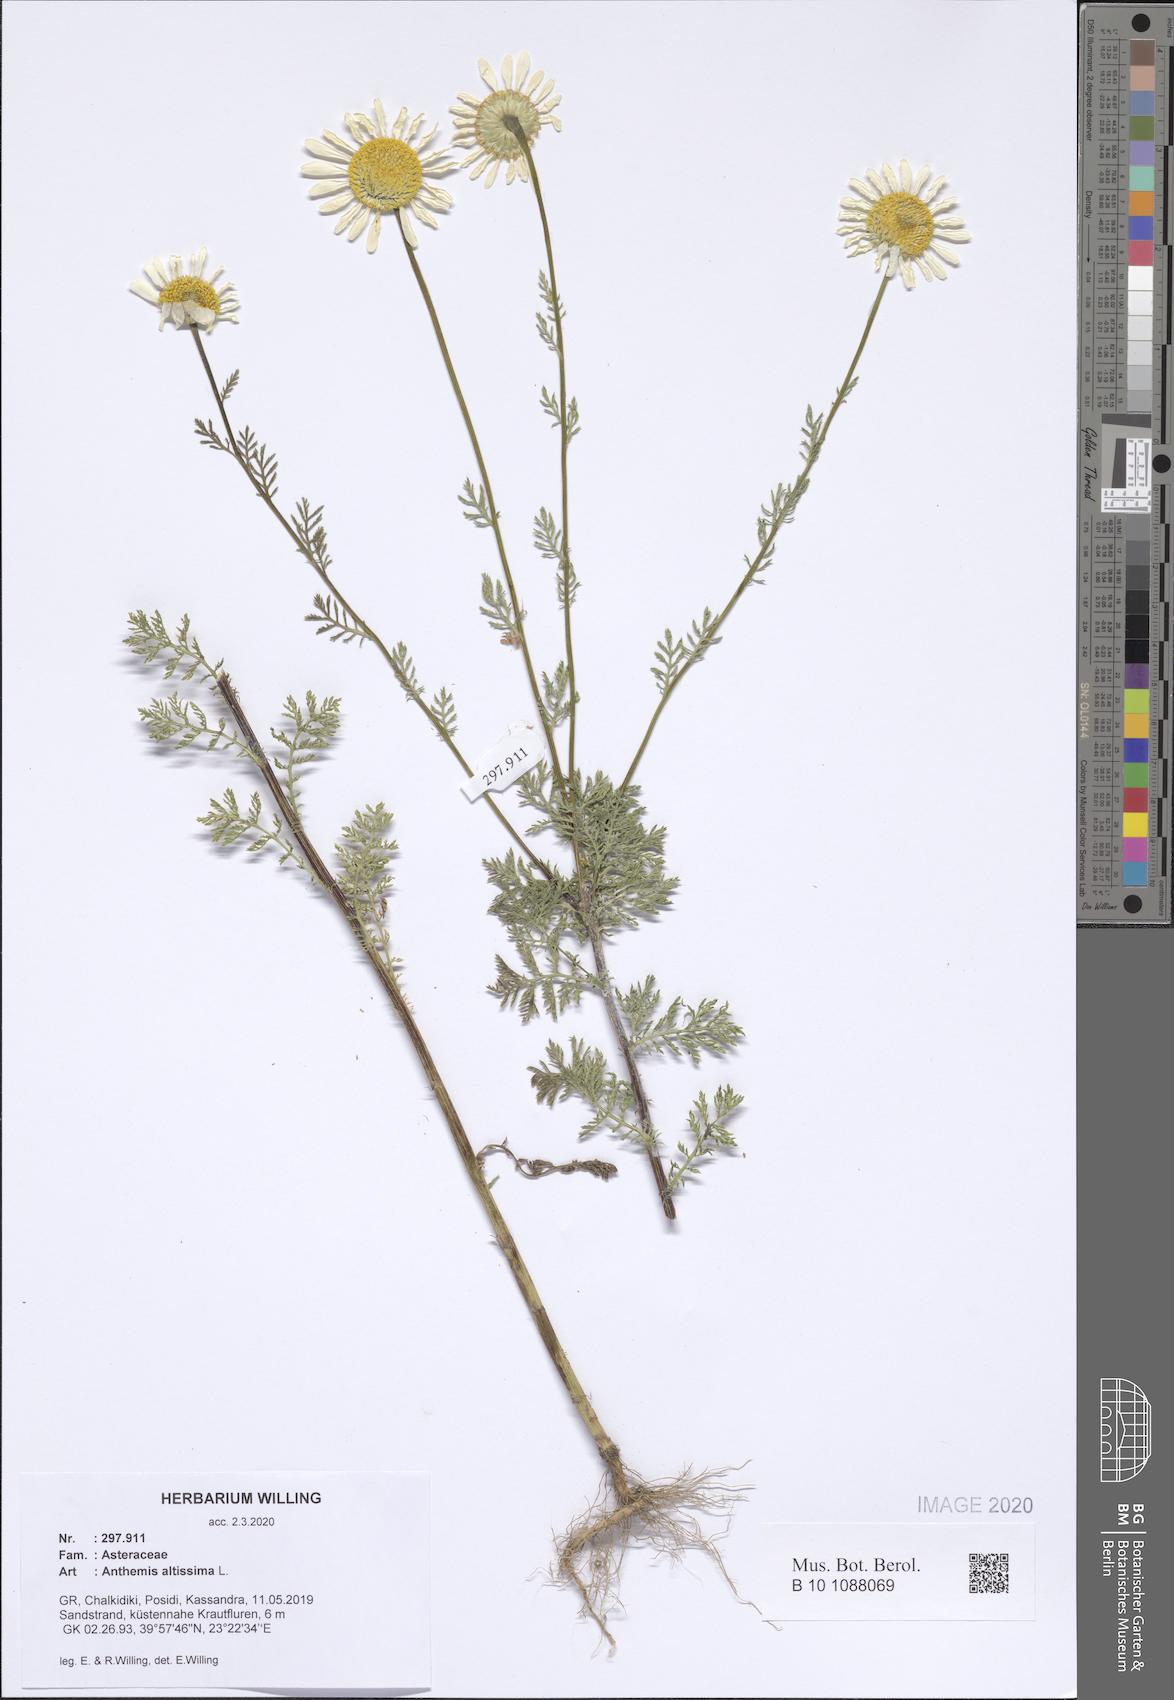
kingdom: Plantae
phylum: Tracheophyta
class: Magnoliopsida
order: Asterales
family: Asteraceae
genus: Cota
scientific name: Cota altissima
